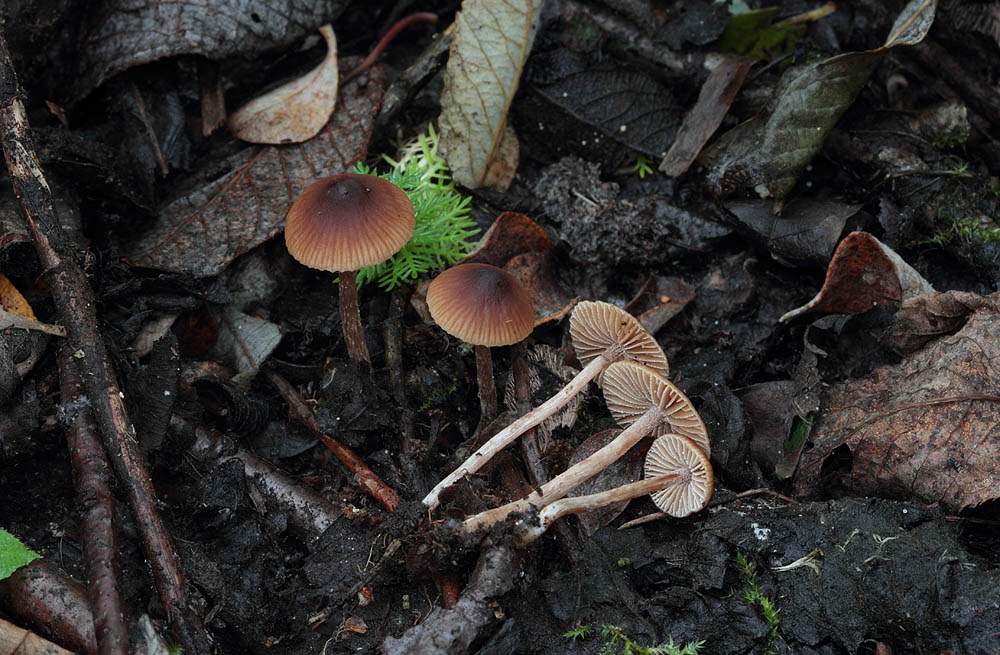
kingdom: Fungi
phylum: Basidiomycota
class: Agaricomycetes
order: Agaricales
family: Hymenogastraceae
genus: Naucoria
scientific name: Naucoria salicis
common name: pile-knaphat
